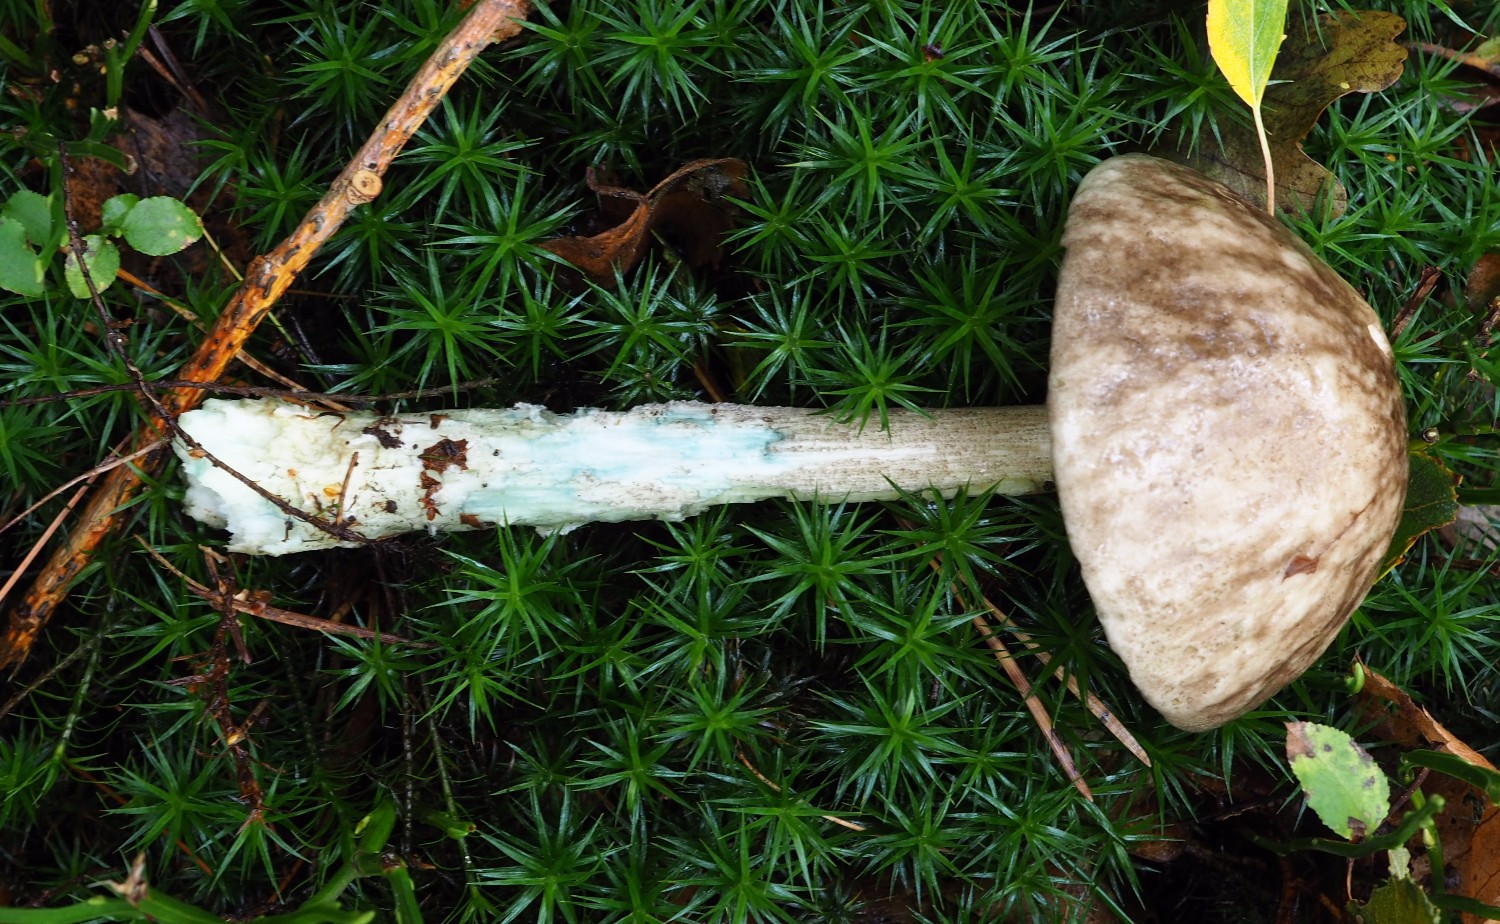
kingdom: Fungi
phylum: Basidiomycota
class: Agaricomycetes
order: Boletales
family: Boletaceae
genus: Leccinum
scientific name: Leccinum variicolor
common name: flammet skælrørhat
